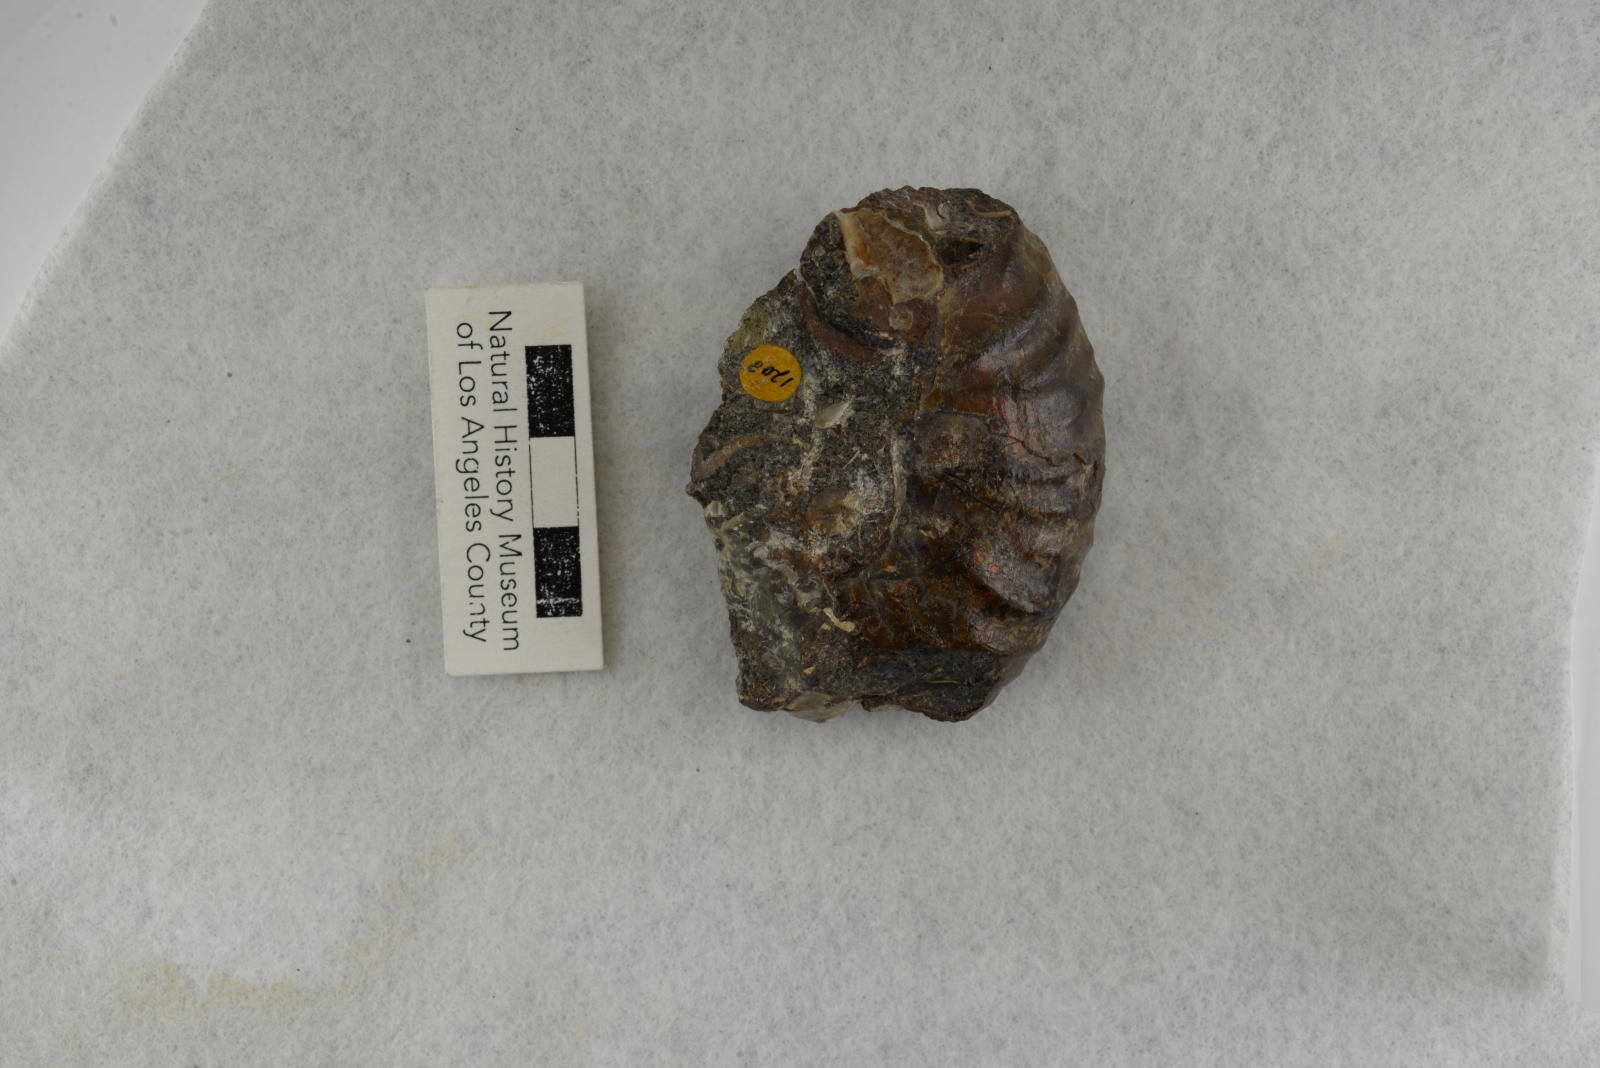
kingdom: Animalia
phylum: Mollusca
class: Cephalopoda
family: Pachydiscidae
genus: Pachydiscus
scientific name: Pachydiscus ashlandicus
